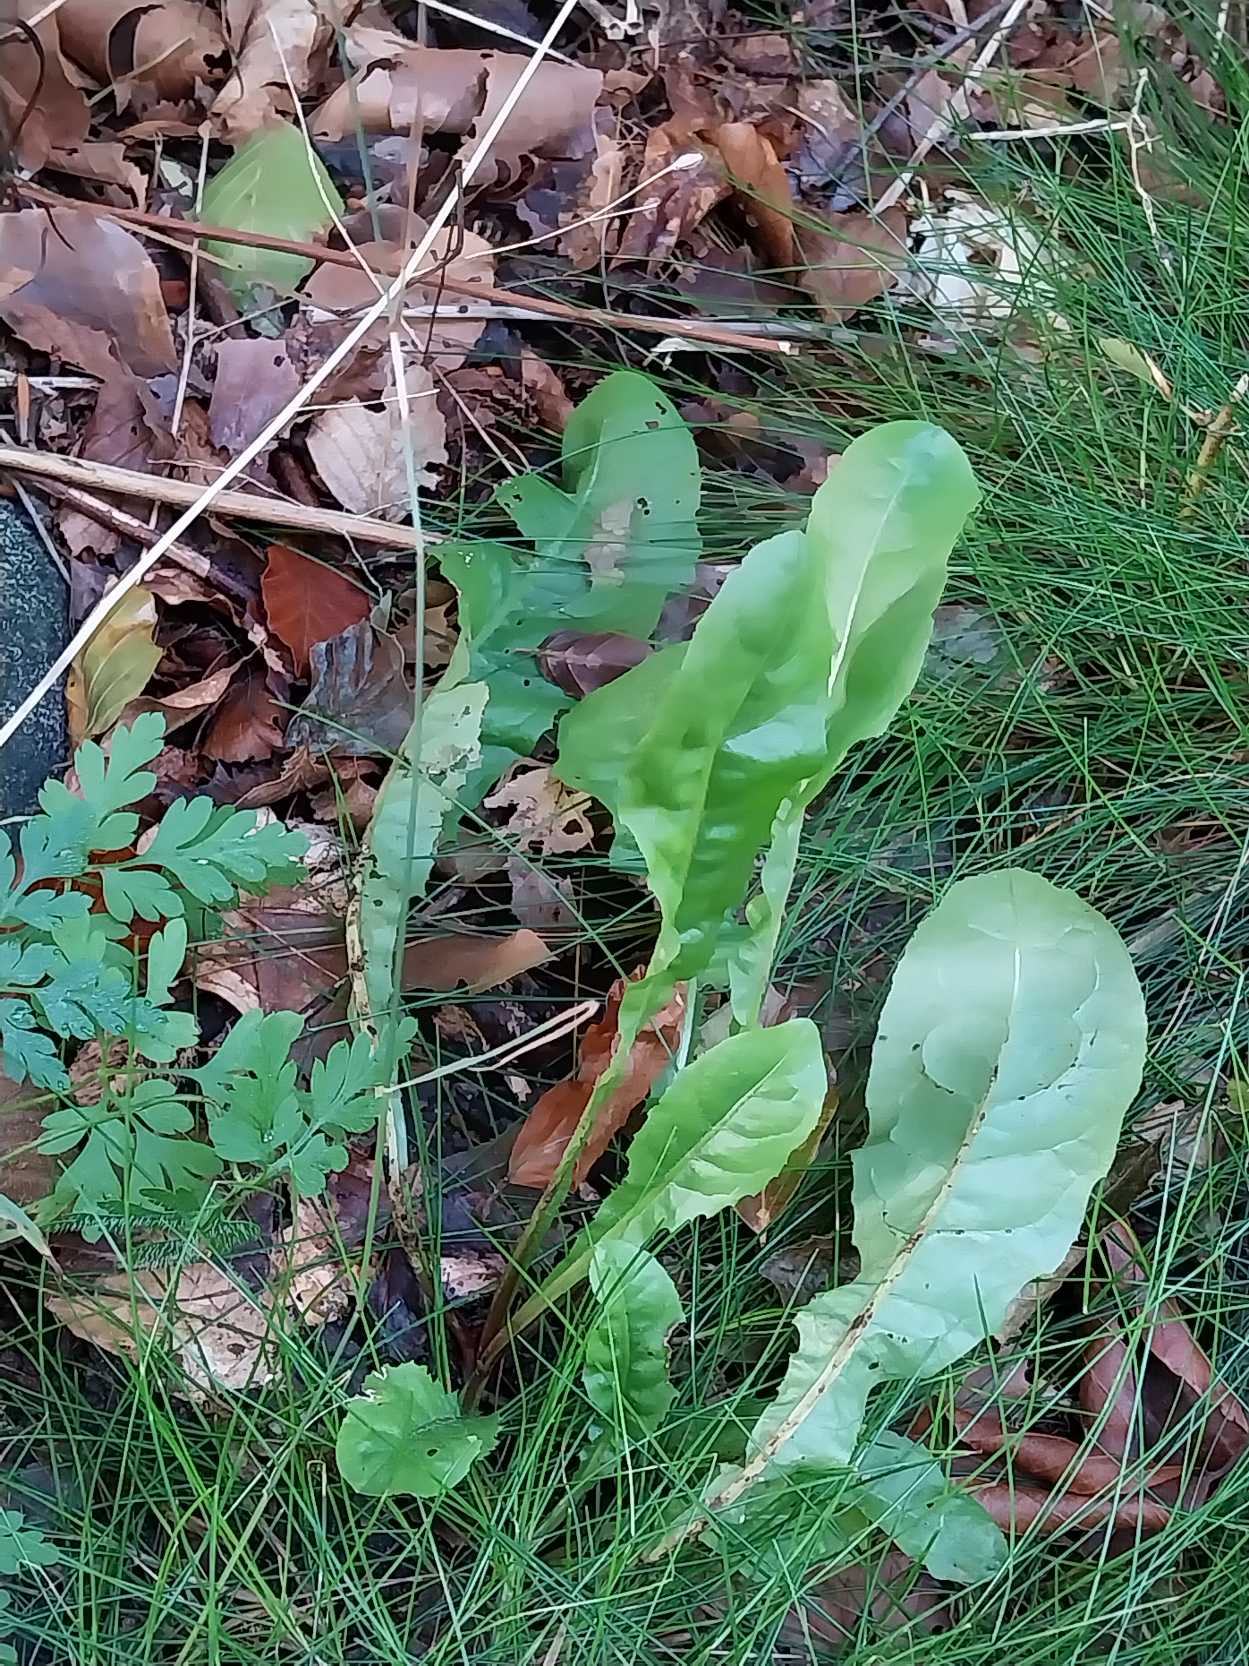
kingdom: Plantae
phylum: Tracheophyta
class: Magnoliopsida
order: Asterales
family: Asteraceae
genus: Taraxacum
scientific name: Taraxacum
